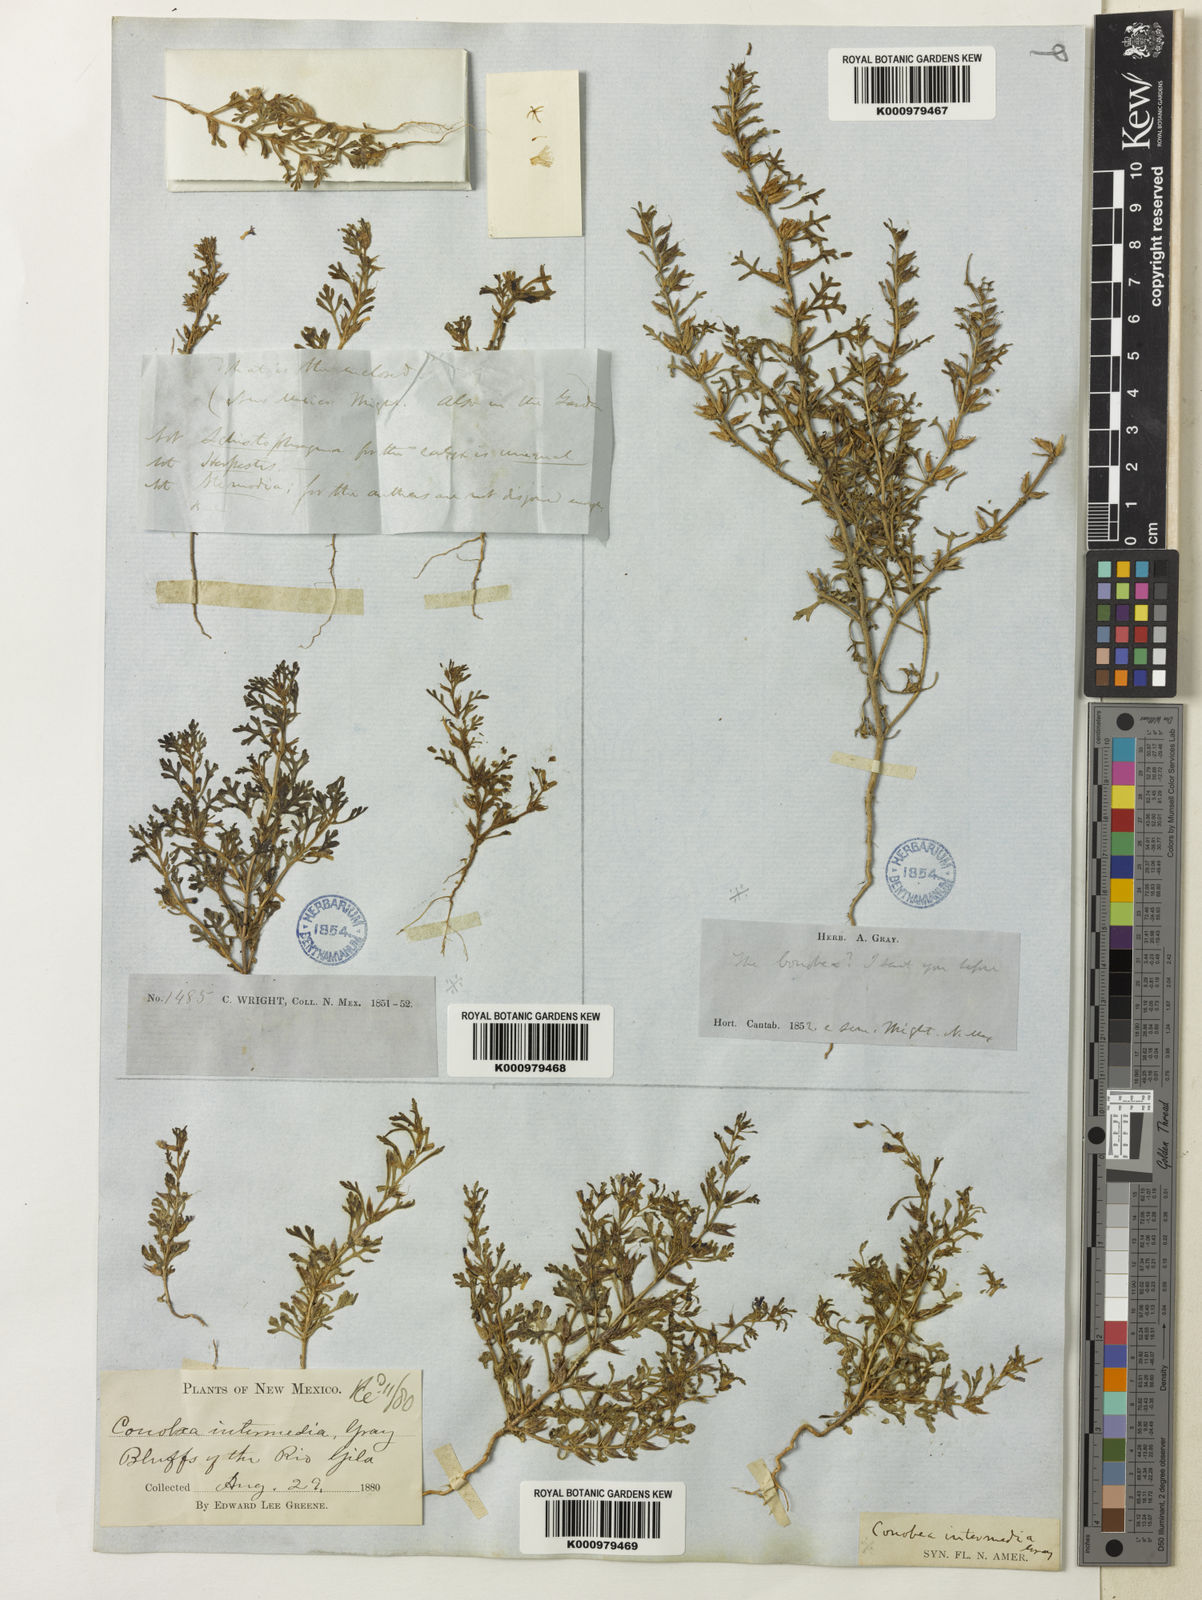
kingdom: Plantae
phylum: Tracheophyta
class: Magnoliopsida
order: Lamiales
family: Plantaginaceae
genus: Schistophragma
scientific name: Schistophragma intermedium
